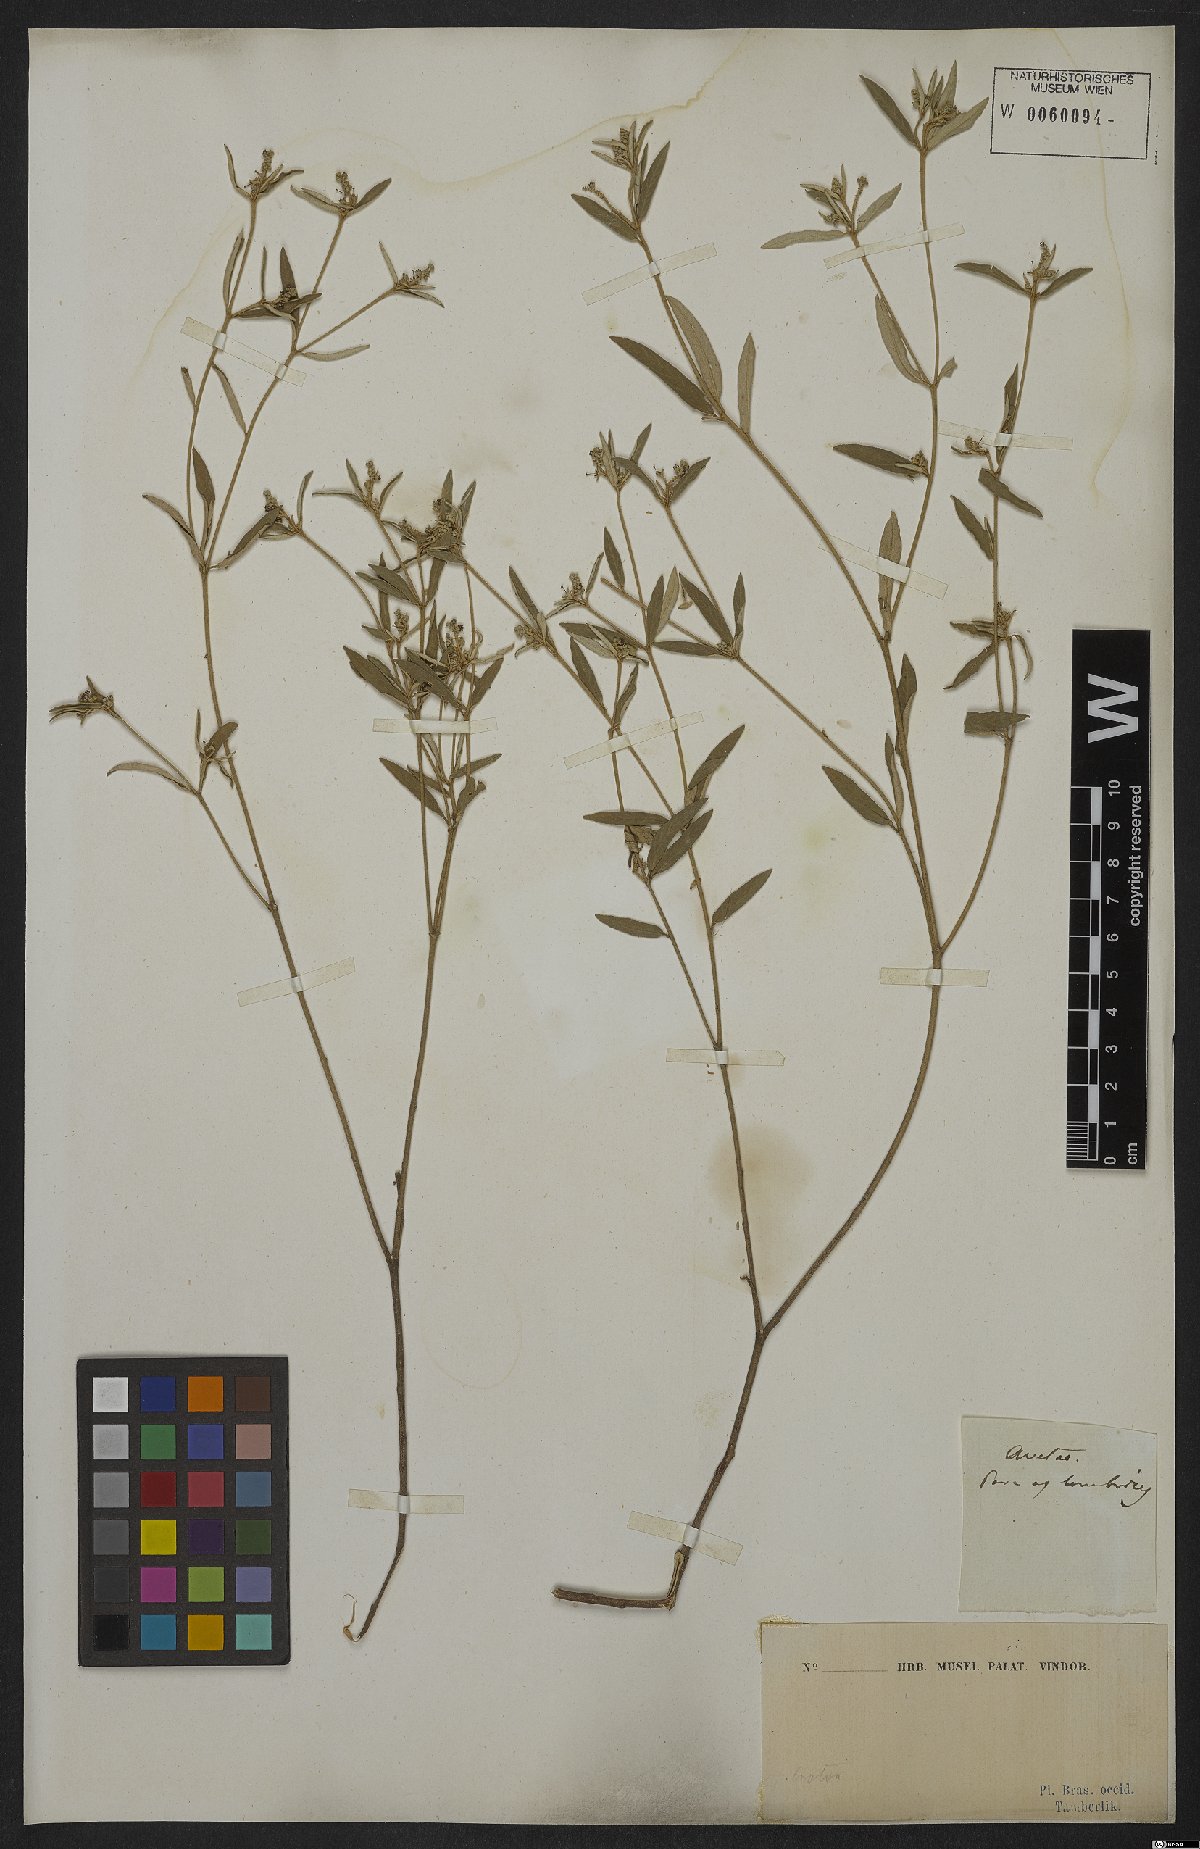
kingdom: Plantae
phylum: Tracheophyta
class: Magnoliopsida
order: Malpighiales
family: Euphorbiaceae
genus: Croton
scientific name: Croton longicolumellus
